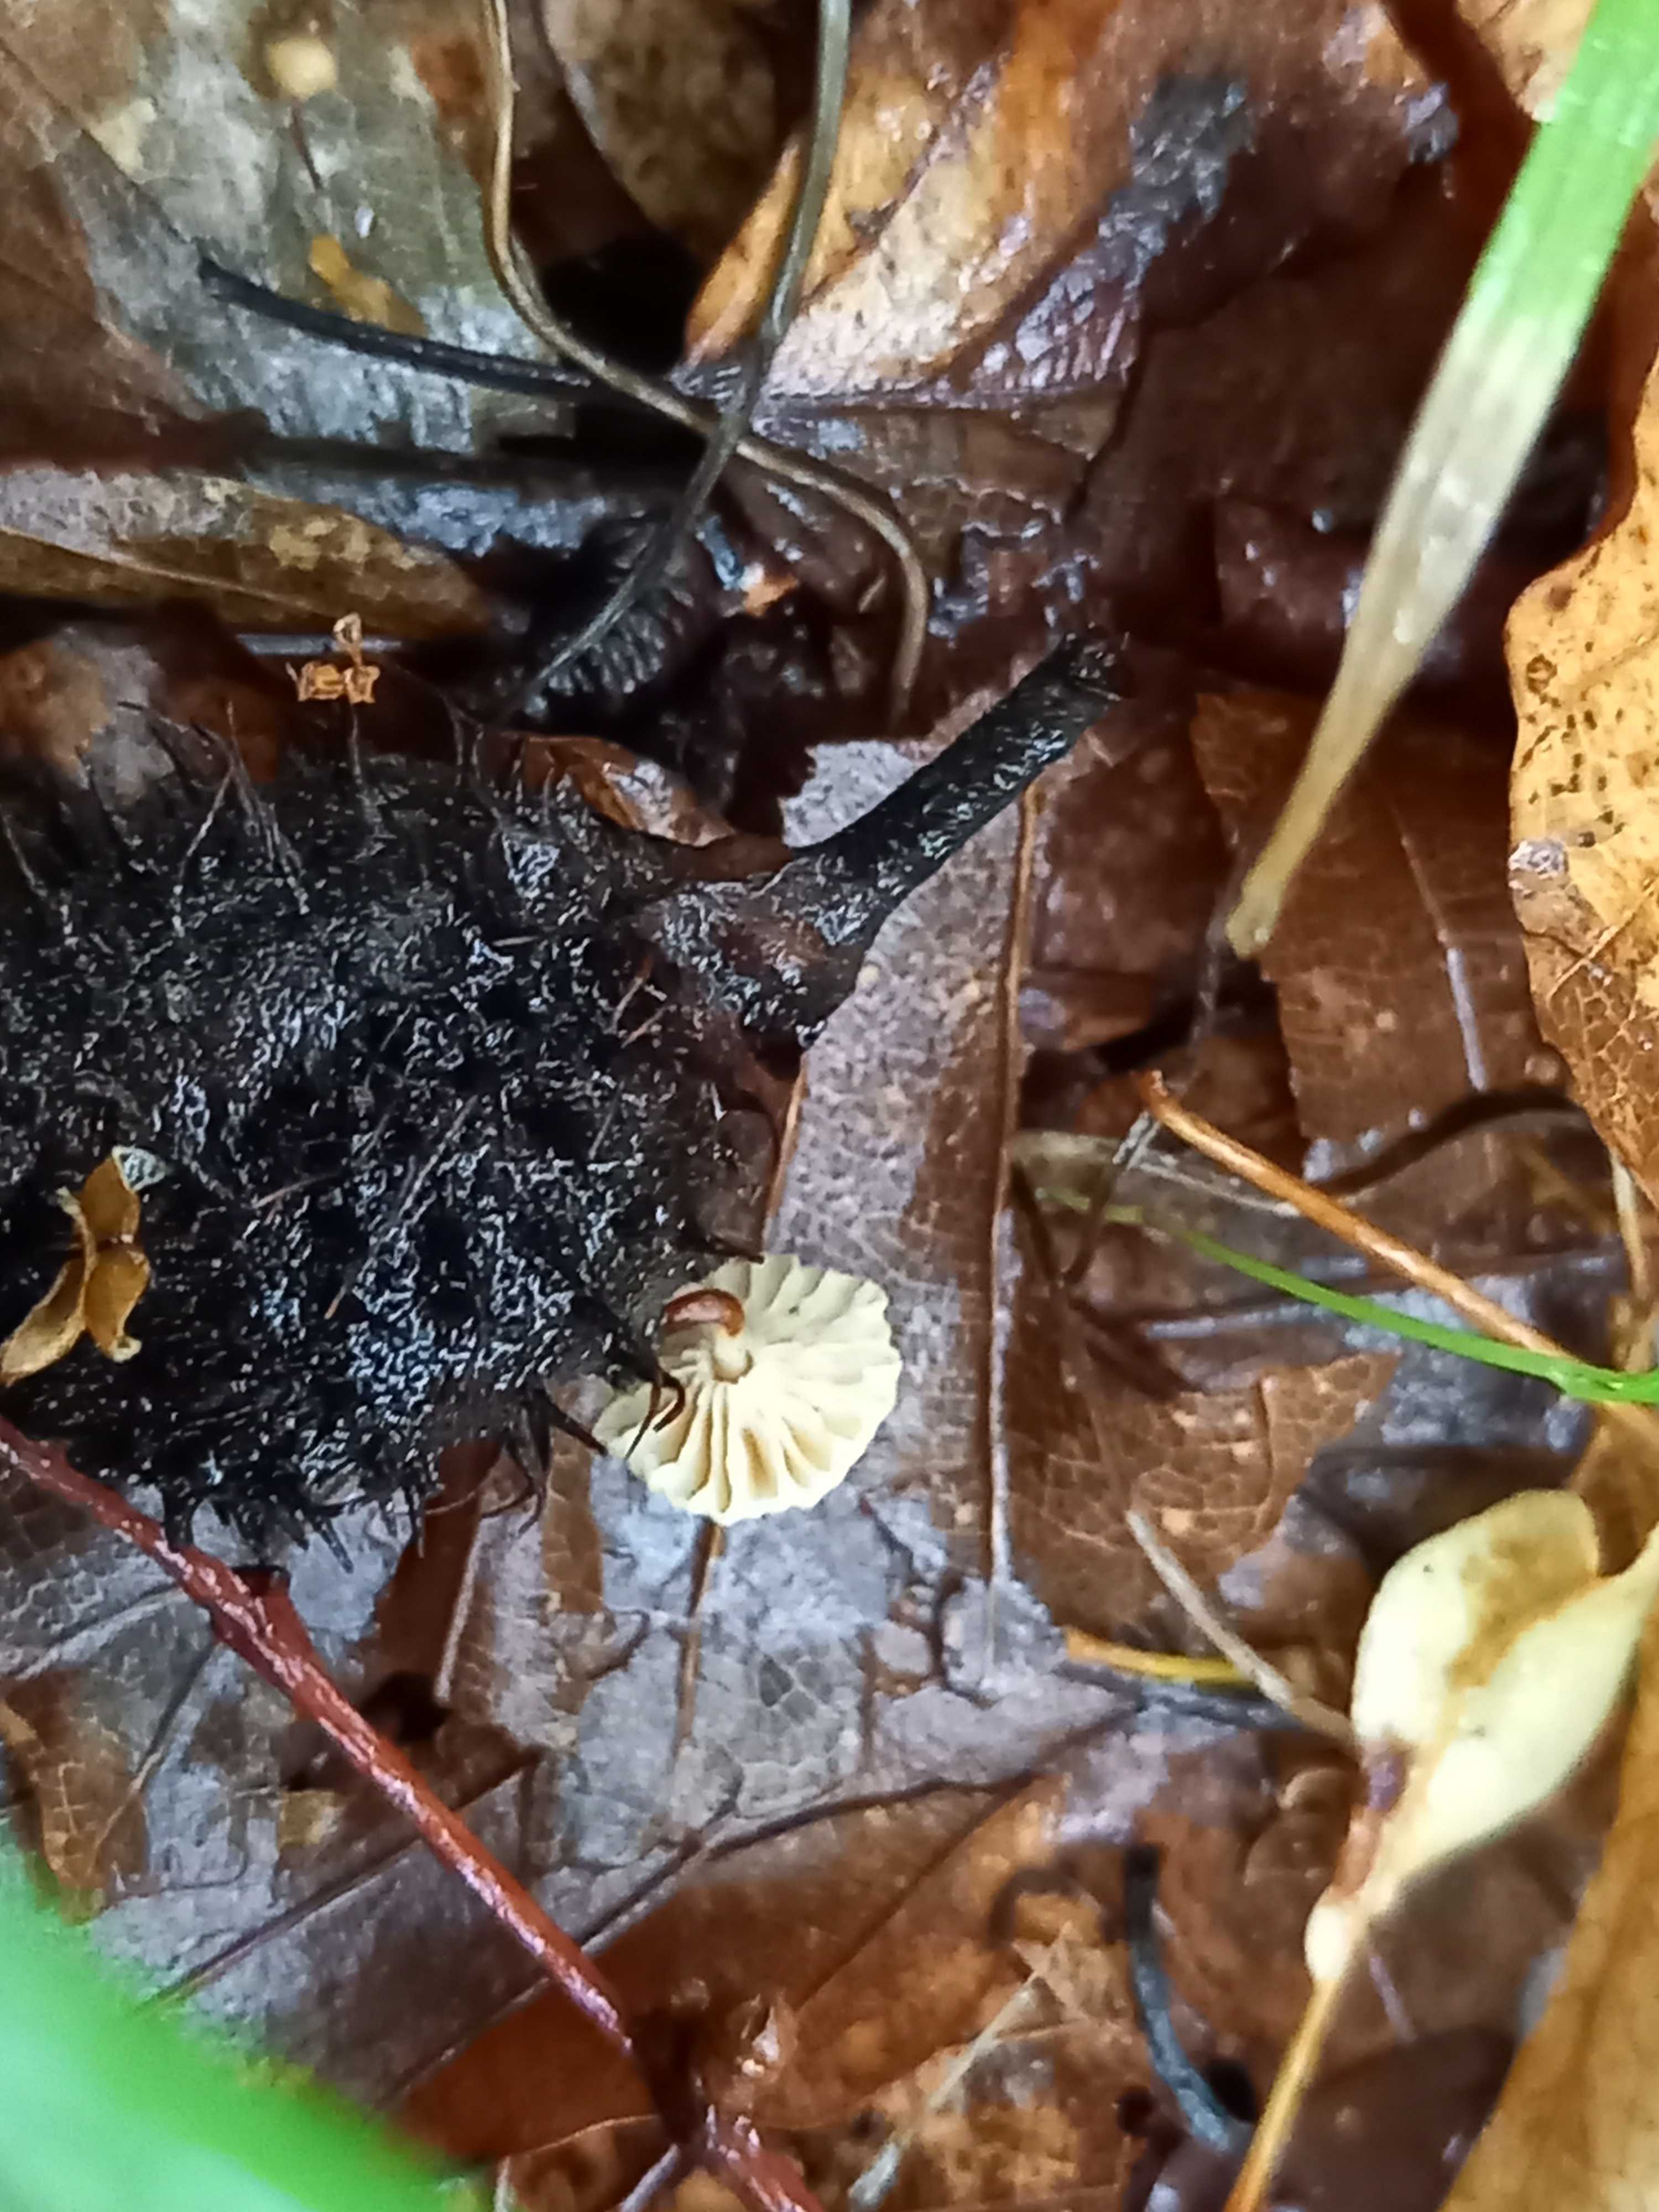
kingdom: Fungi
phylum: Basidiomycota
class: Agaricomycetes
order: Agaricales
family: Marasmiaceae
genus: Marasmius
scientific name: Marasmius rotula
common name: hjul-bruskhat
